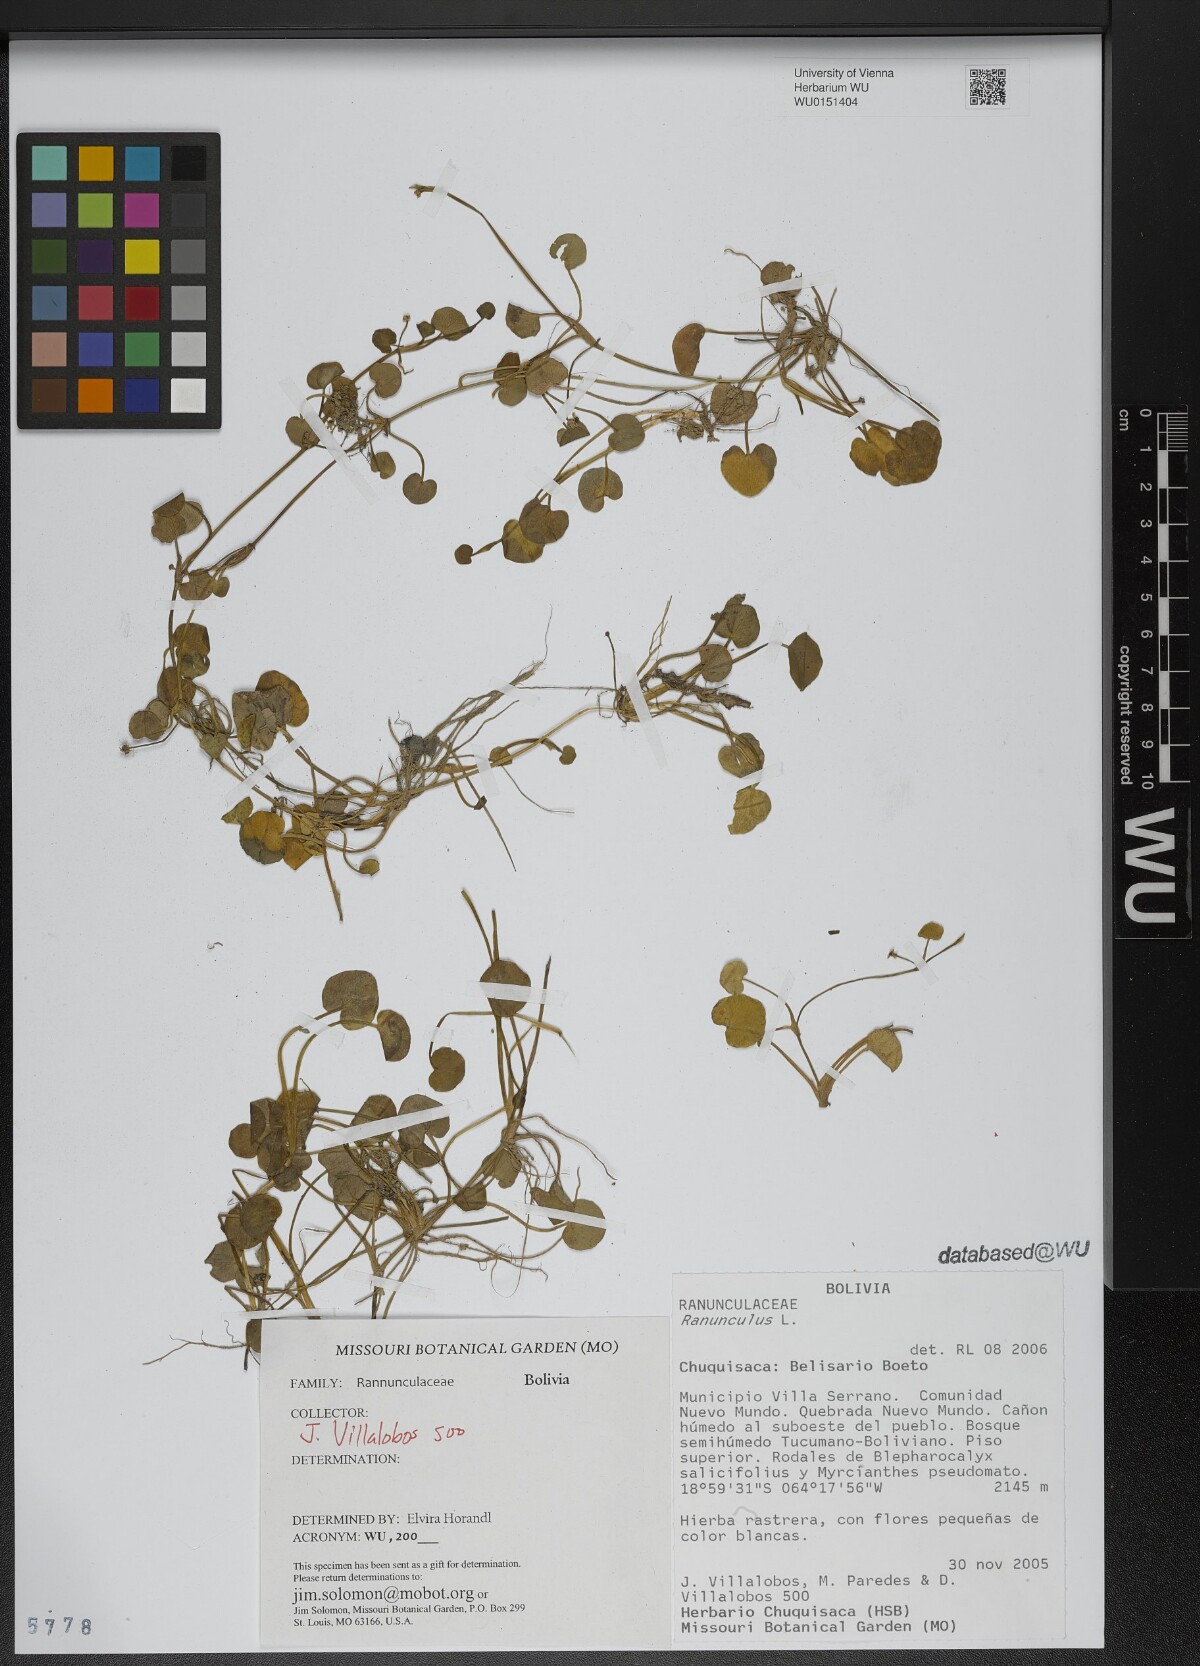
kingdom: Plantae
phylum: Tracheophyta
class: Magnoliopsida
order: Ranunculales
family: Ranunculaceae
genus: Ranunculus
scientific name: Ranunculus
